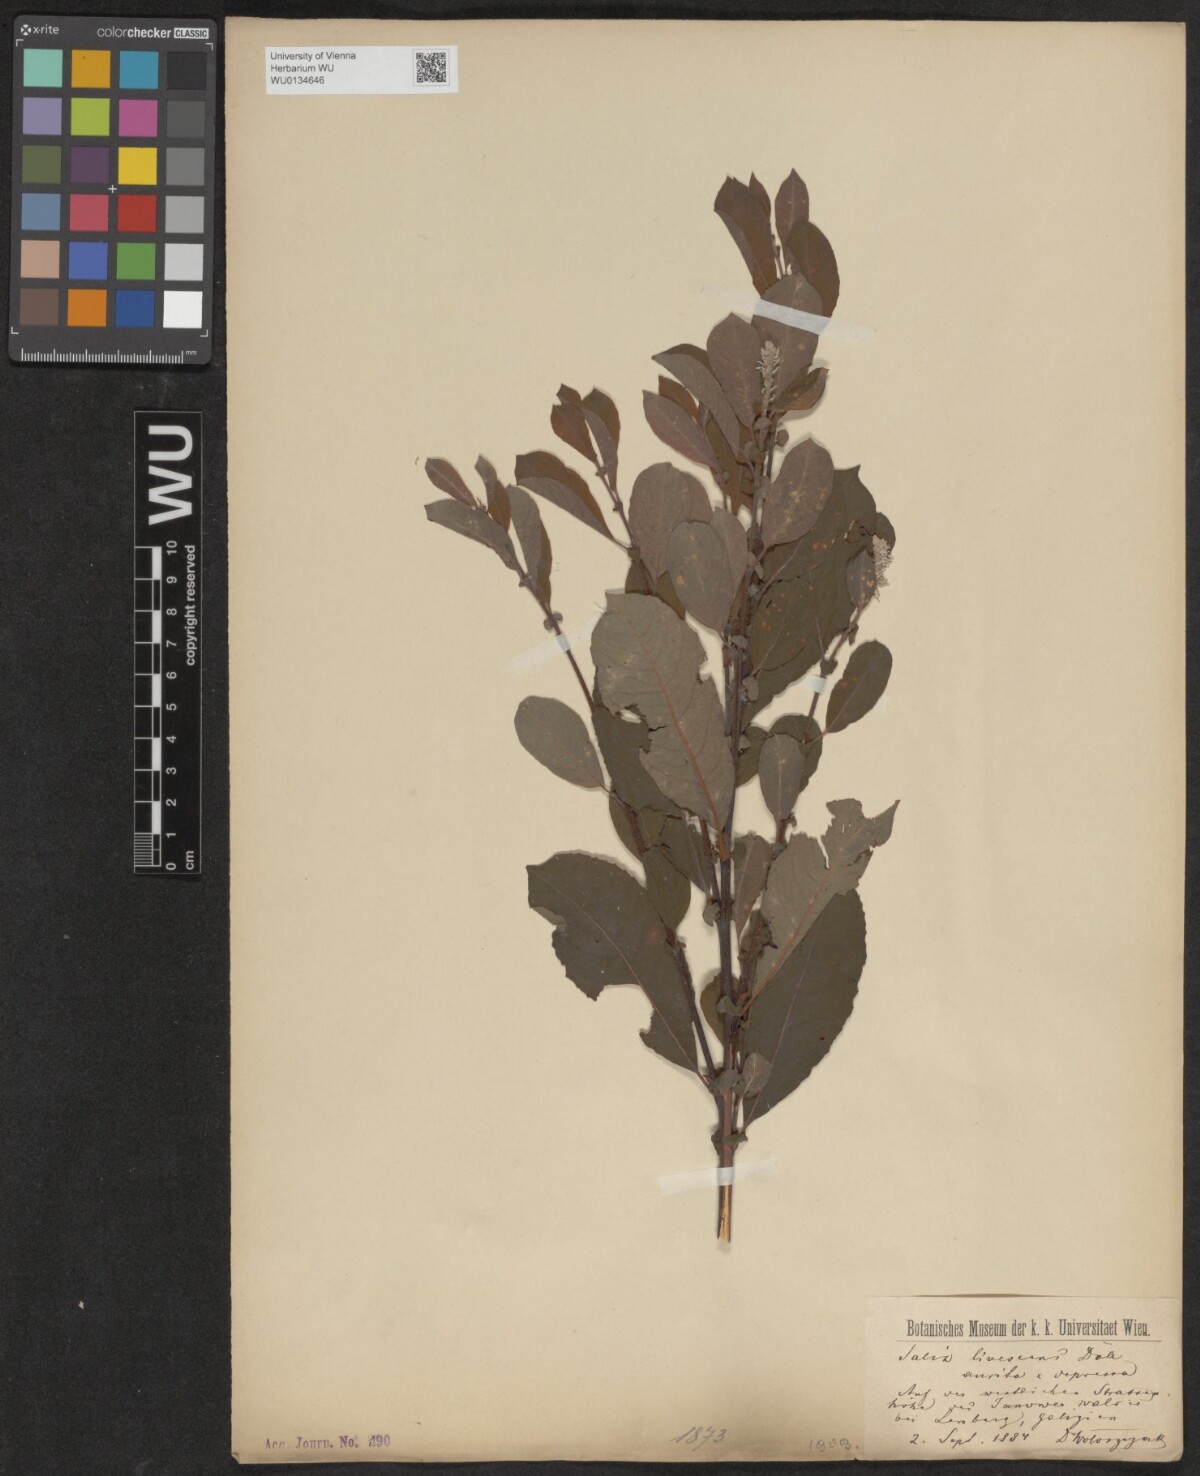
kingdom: Plantae
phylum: Tracheophyta
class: Magnoliopsida
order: Malpighiales
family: Salicaceae
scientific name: Salicaceae
